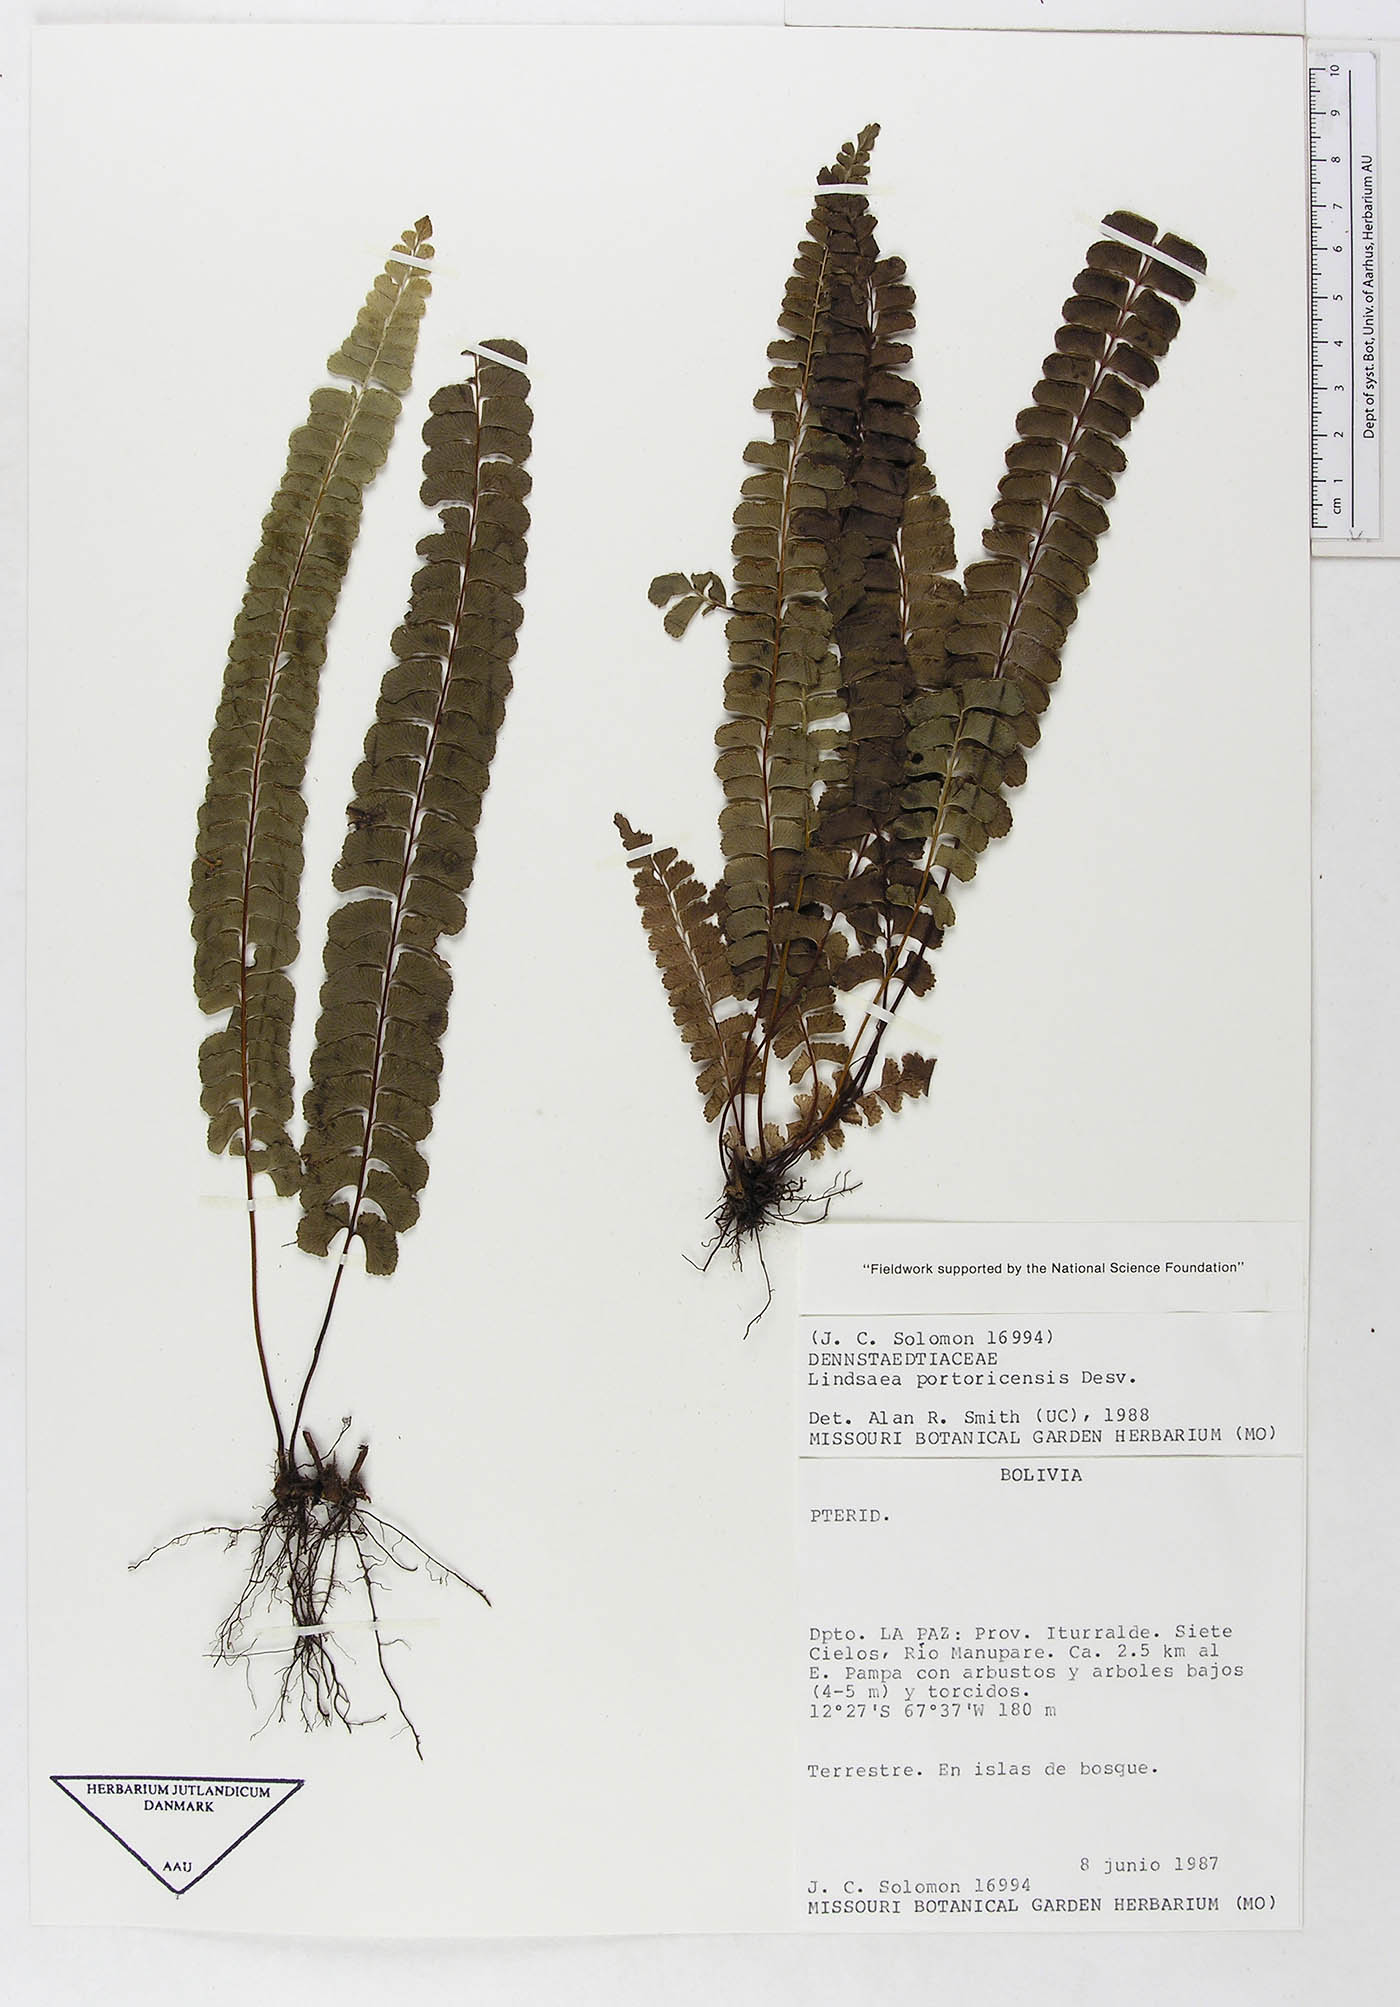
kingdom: Plantae
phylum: Tracheophyta
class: Polypodiopsida
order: Polypodiales
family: Dennstaedtiaceae
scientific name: Dennstaedtiaceae
